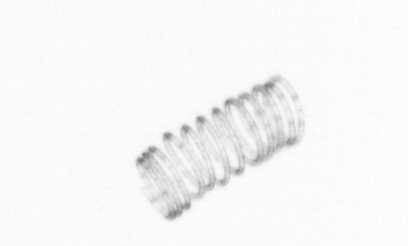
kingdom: Chromista
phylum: Ochrophyta
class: Bacillariophyceae
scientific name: Bacillariophyceae
